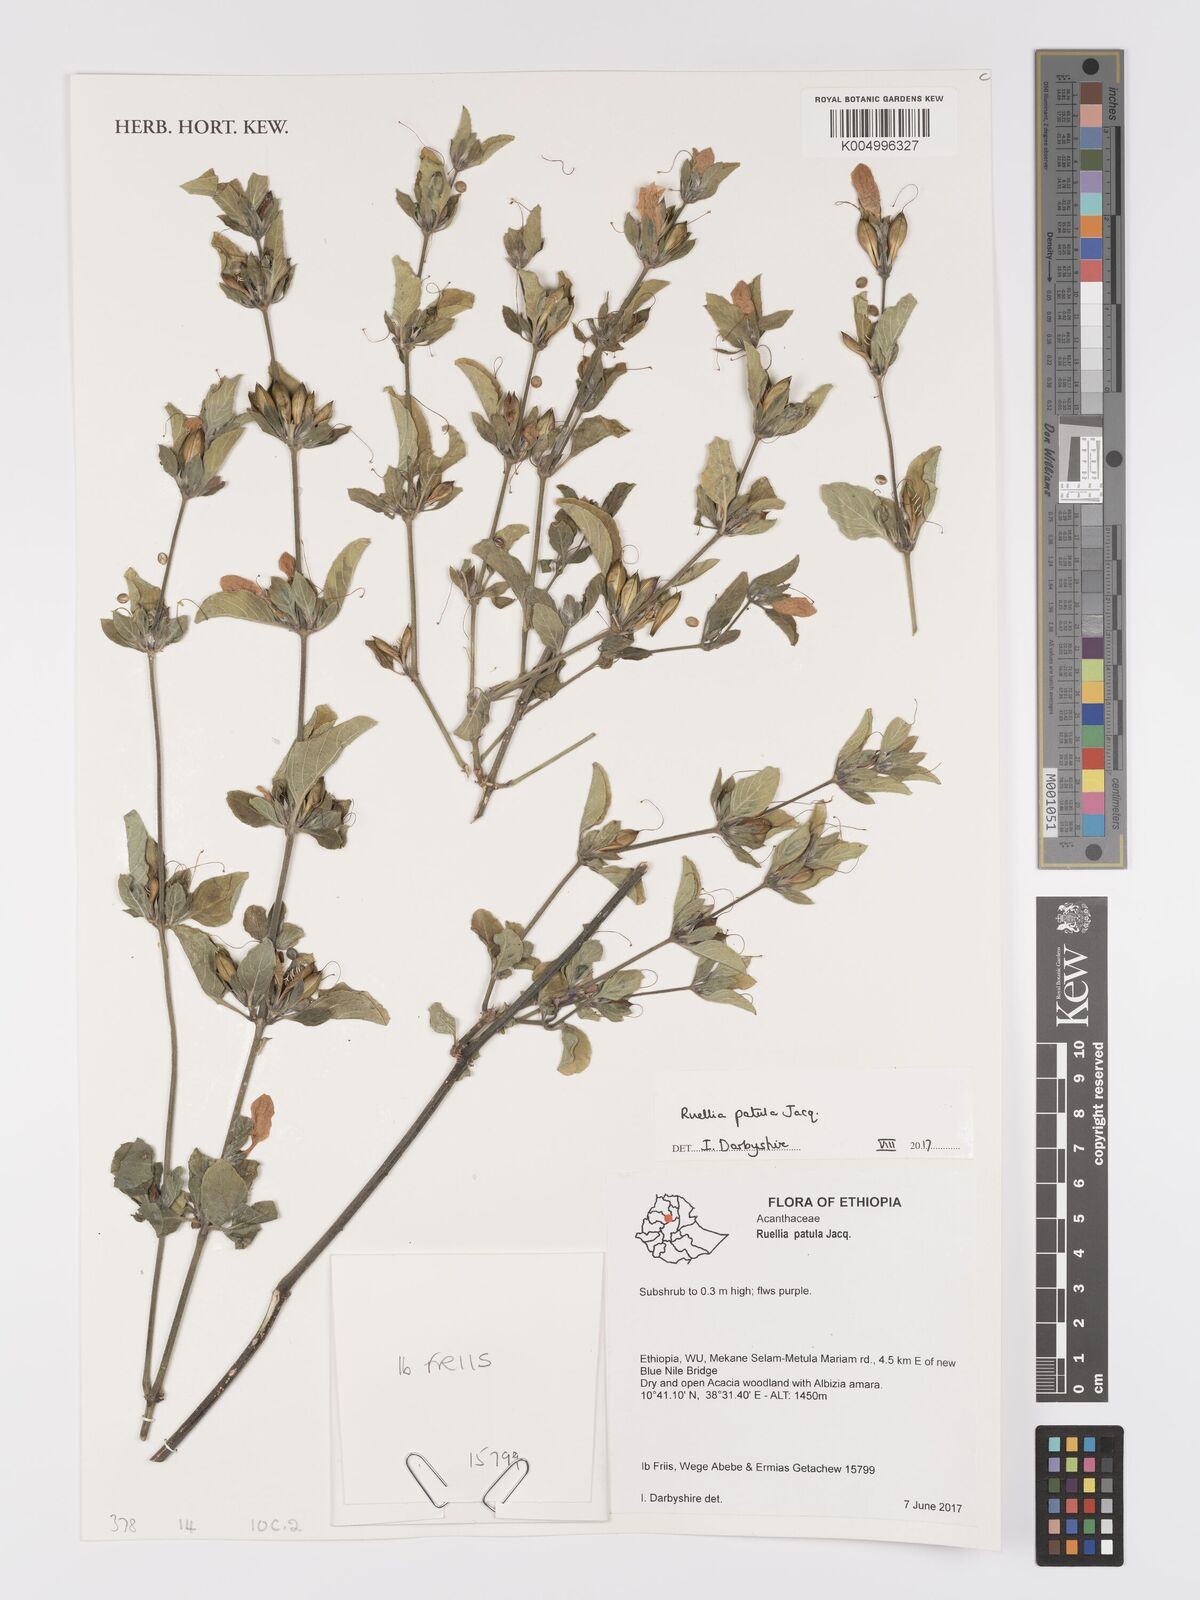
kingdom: Plantae
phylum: Tracheophyta
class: Magnoliopsida
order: Lamiales
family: Acanthaceae
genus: Ruellia
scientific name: Ruellia patula
